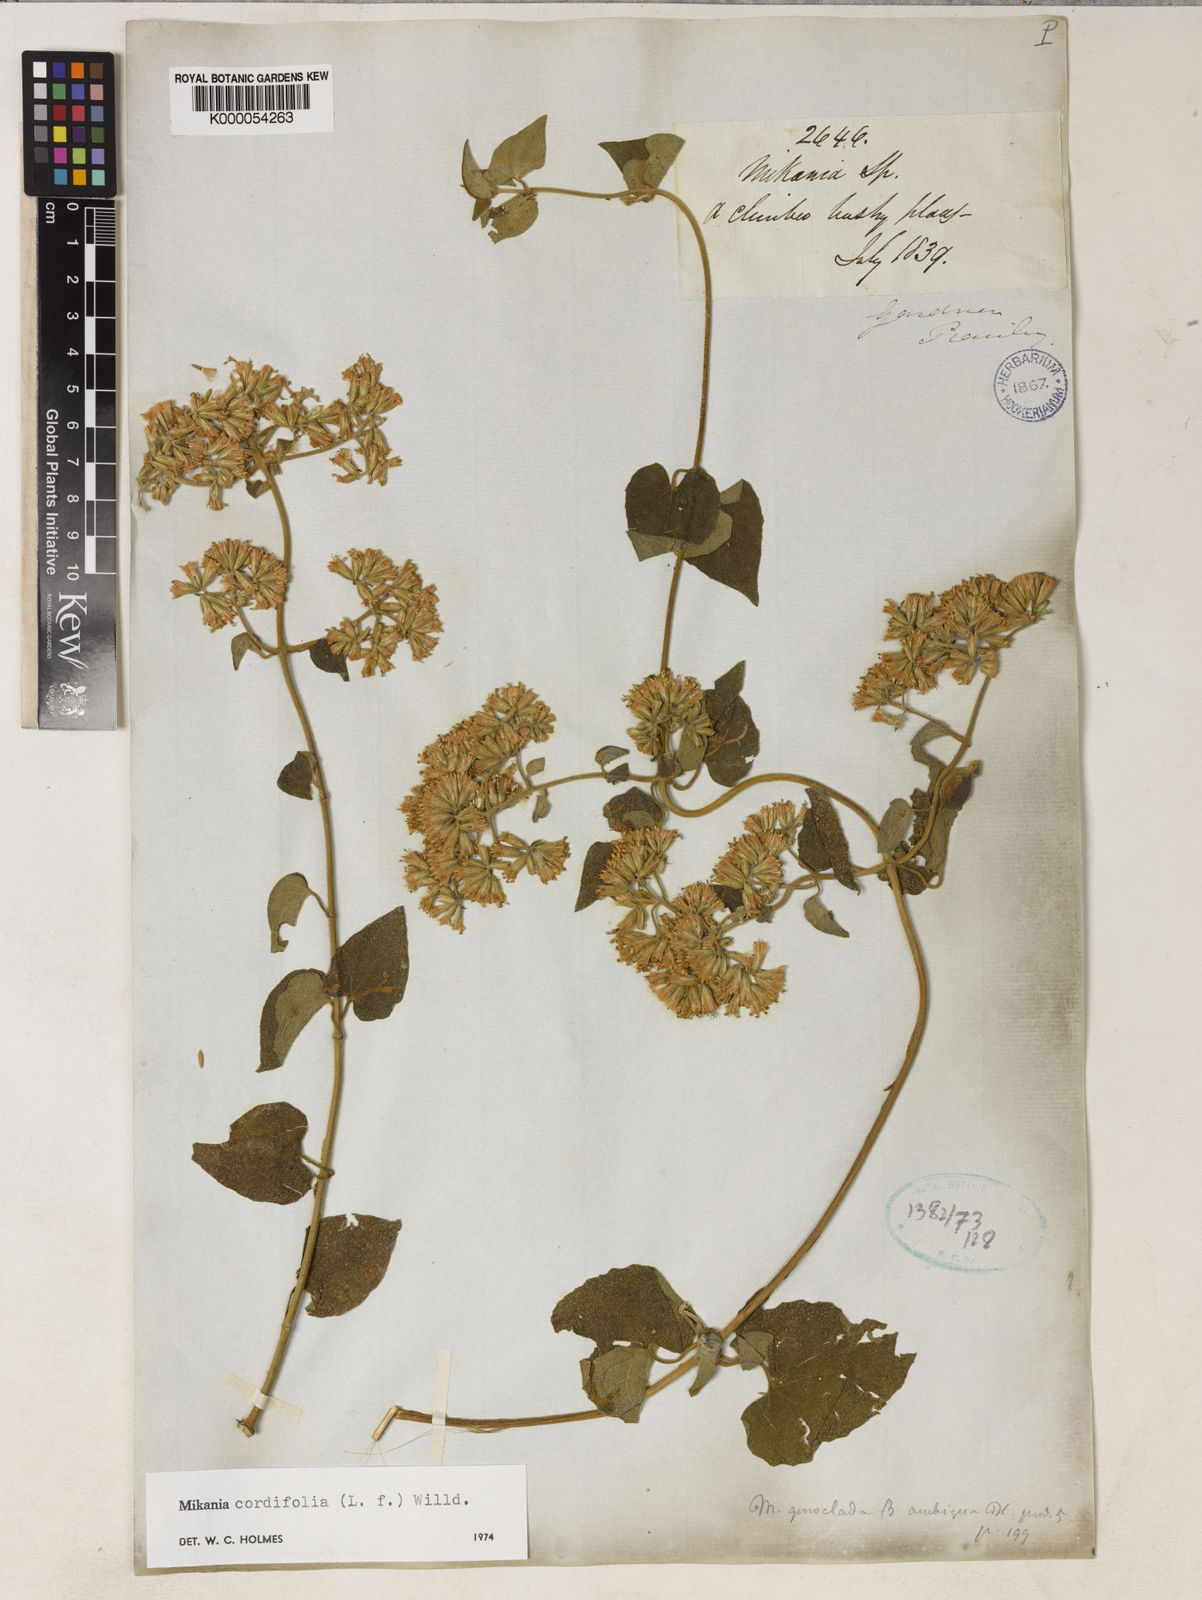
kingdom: Plantae
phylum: Tracheophyta
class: Magnoliopsida
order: Asterales
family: Asteraceae
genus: Mikania
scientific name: Mikania cordifolia
